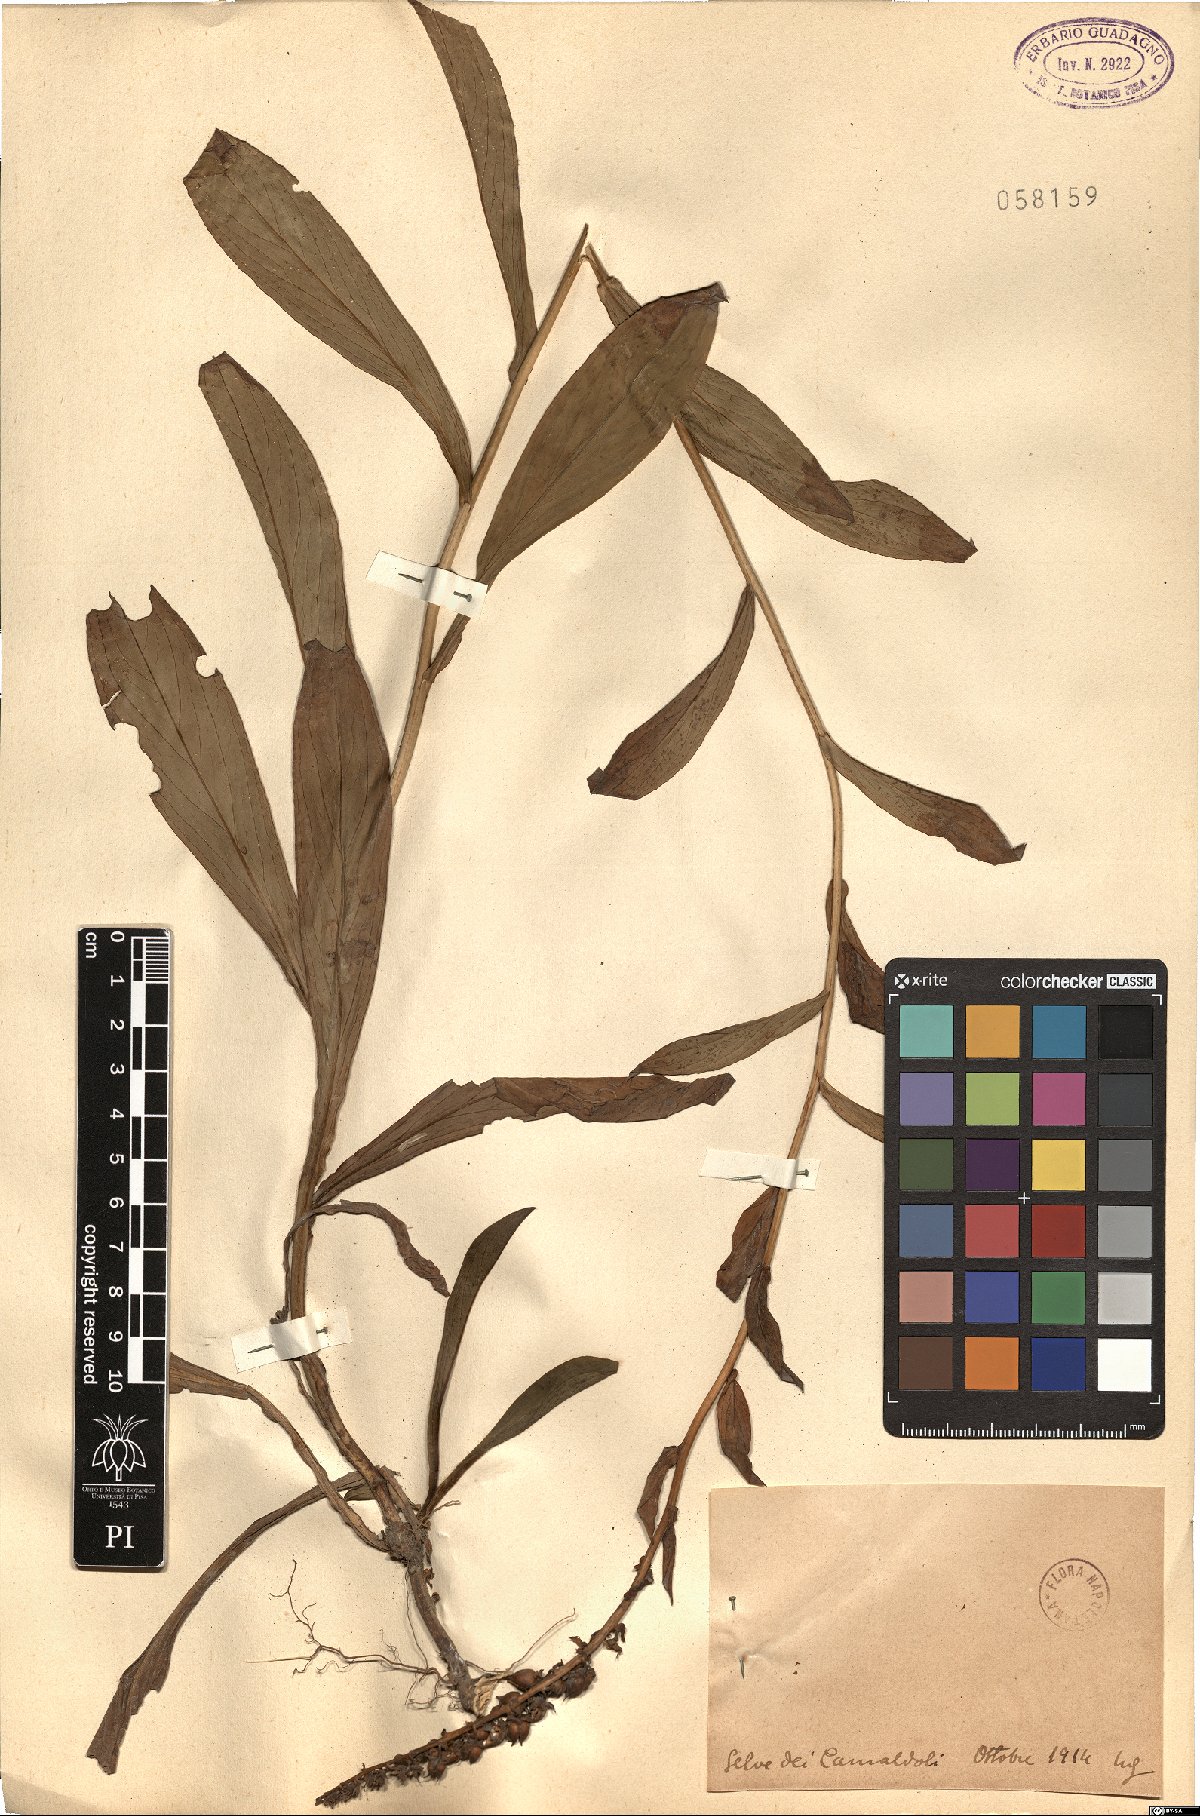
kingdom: Plantae
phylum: Tracheophyta
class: Magnoliopsida
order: Lamiales
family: Plantaginaceae
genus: Digitalis
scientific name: Digitalis
